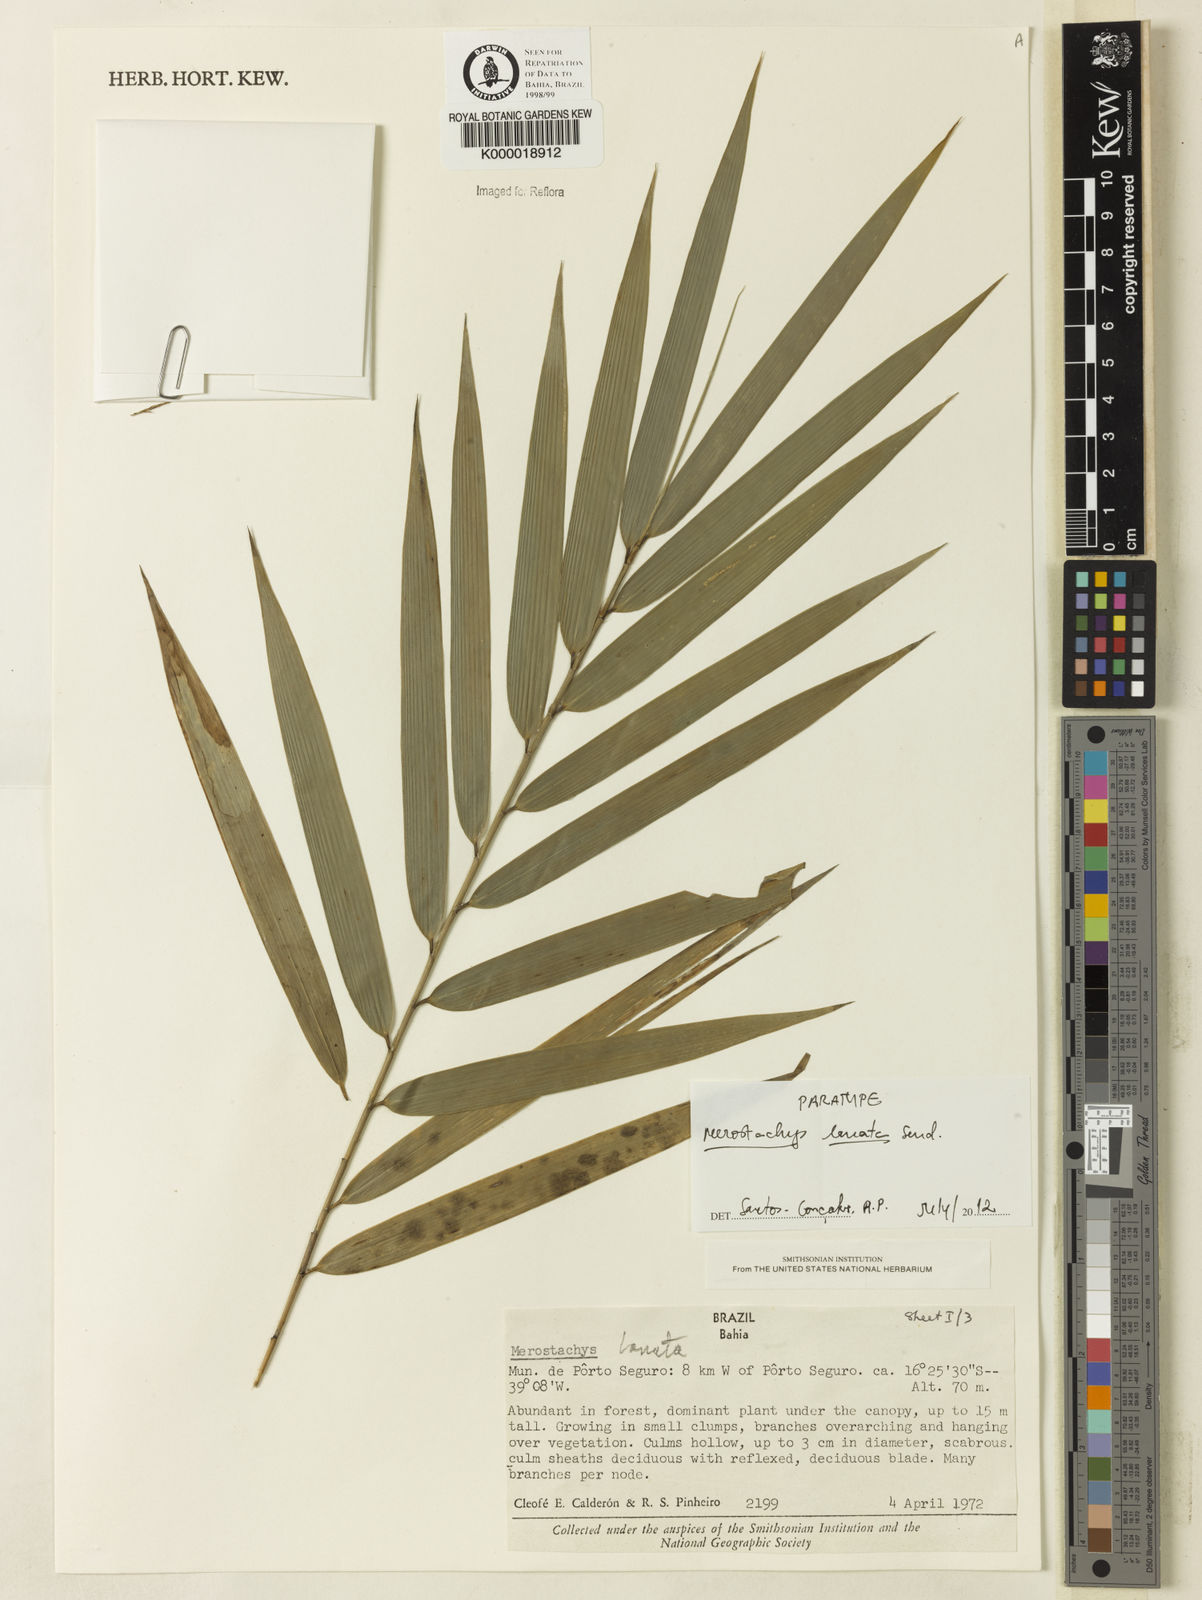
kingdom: Plantae
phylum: Tracheophyta
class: Liliopsida
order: Poales
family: Poaceae
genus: Merostachys
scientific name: Merostachys lanata
